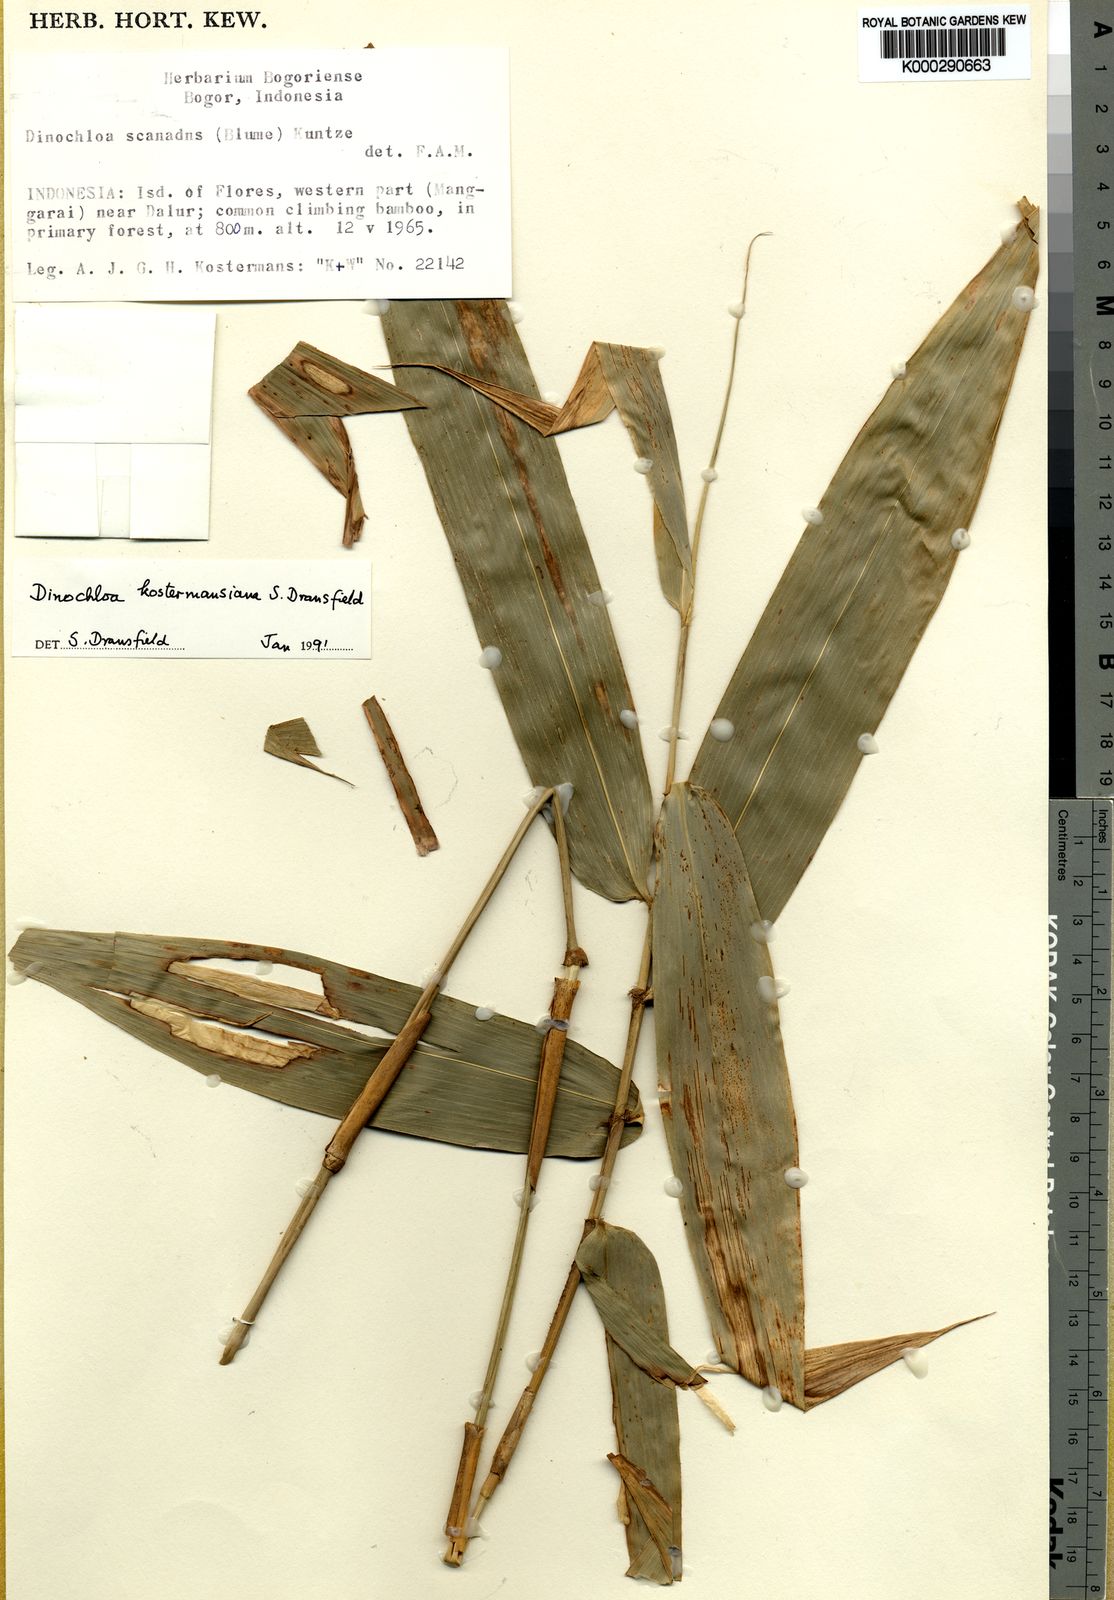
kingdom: Plantae
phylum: Tracheophyta
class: Liliopsida
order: Poales
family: Poaceae
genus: Dinochloa
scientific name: Dinochloa kostermansiana
